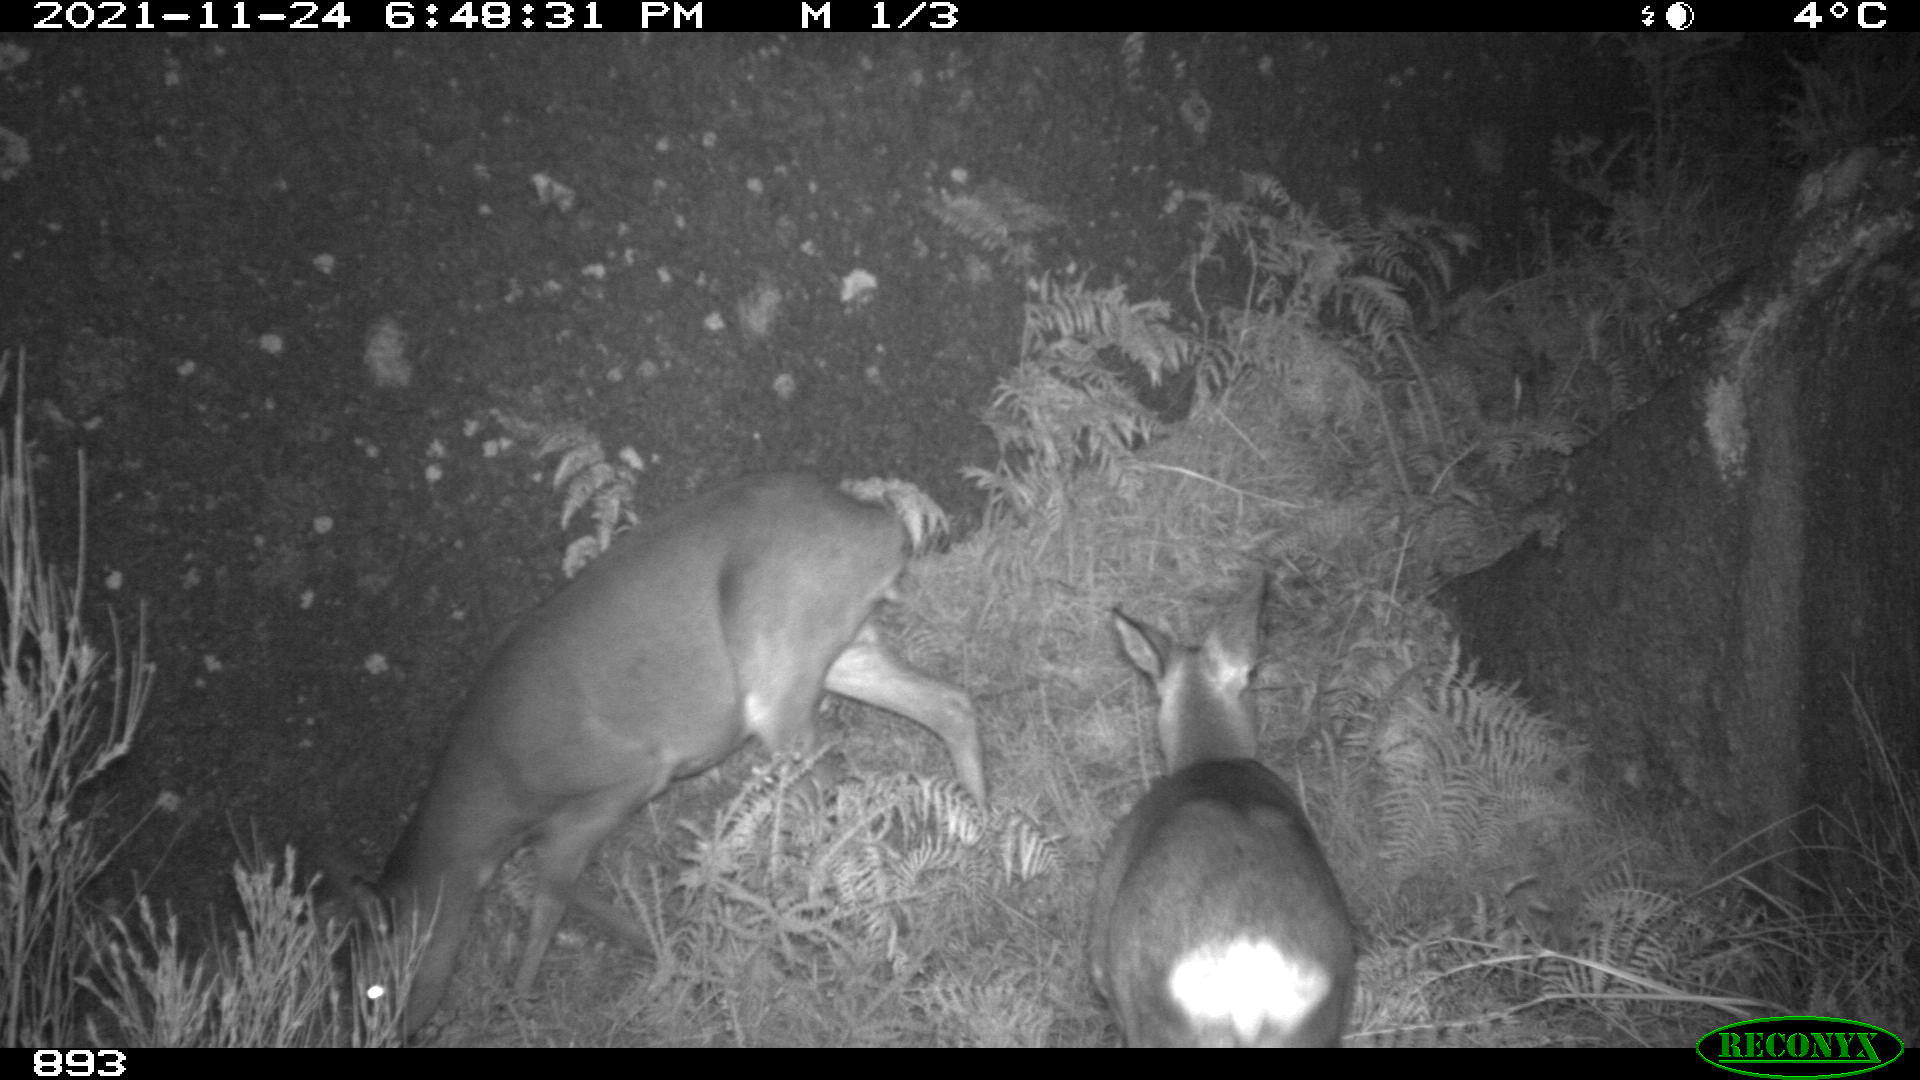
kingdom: Animalia
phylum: Chordata
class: Mammalia
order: Artiodactyla
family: Cervidae
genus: Capreolus
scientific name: Capreolus capreolus
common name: Western roe deer
